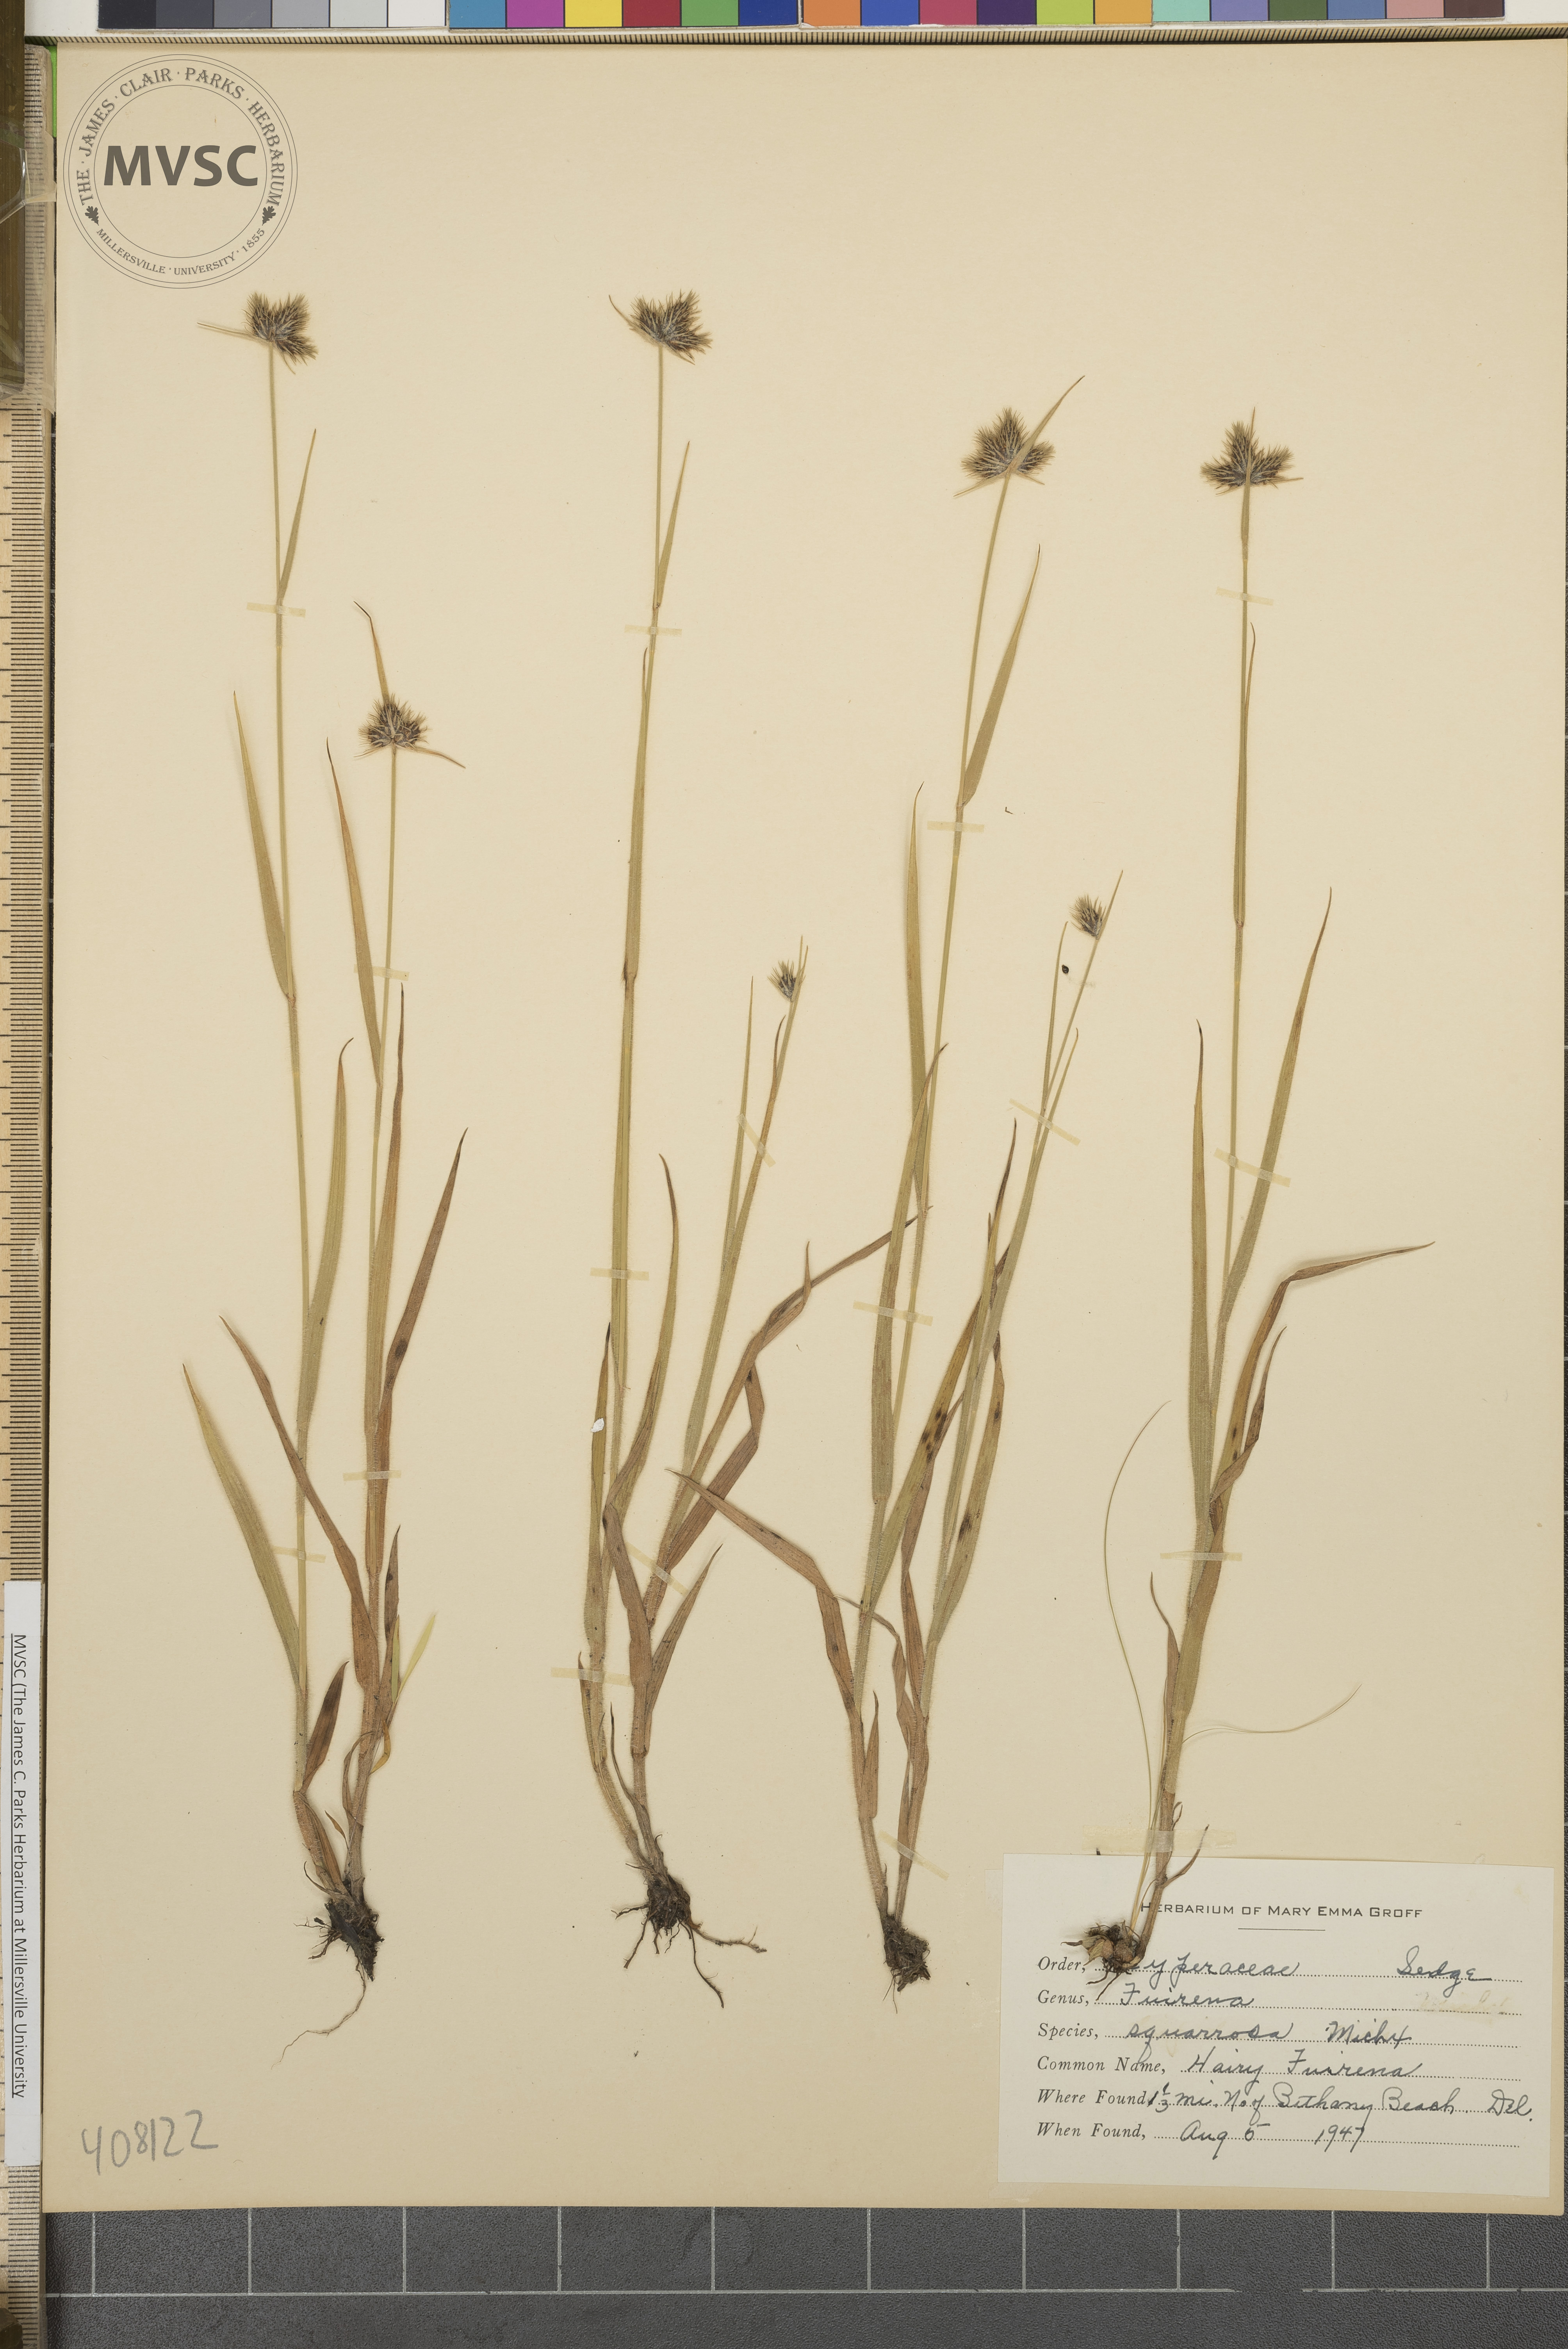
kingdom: Plantae
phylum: Tracheophyta
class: Liliopsida
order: Poales
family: Cyperaceae
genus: Fuirena
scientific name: Fuirena squarrosa
